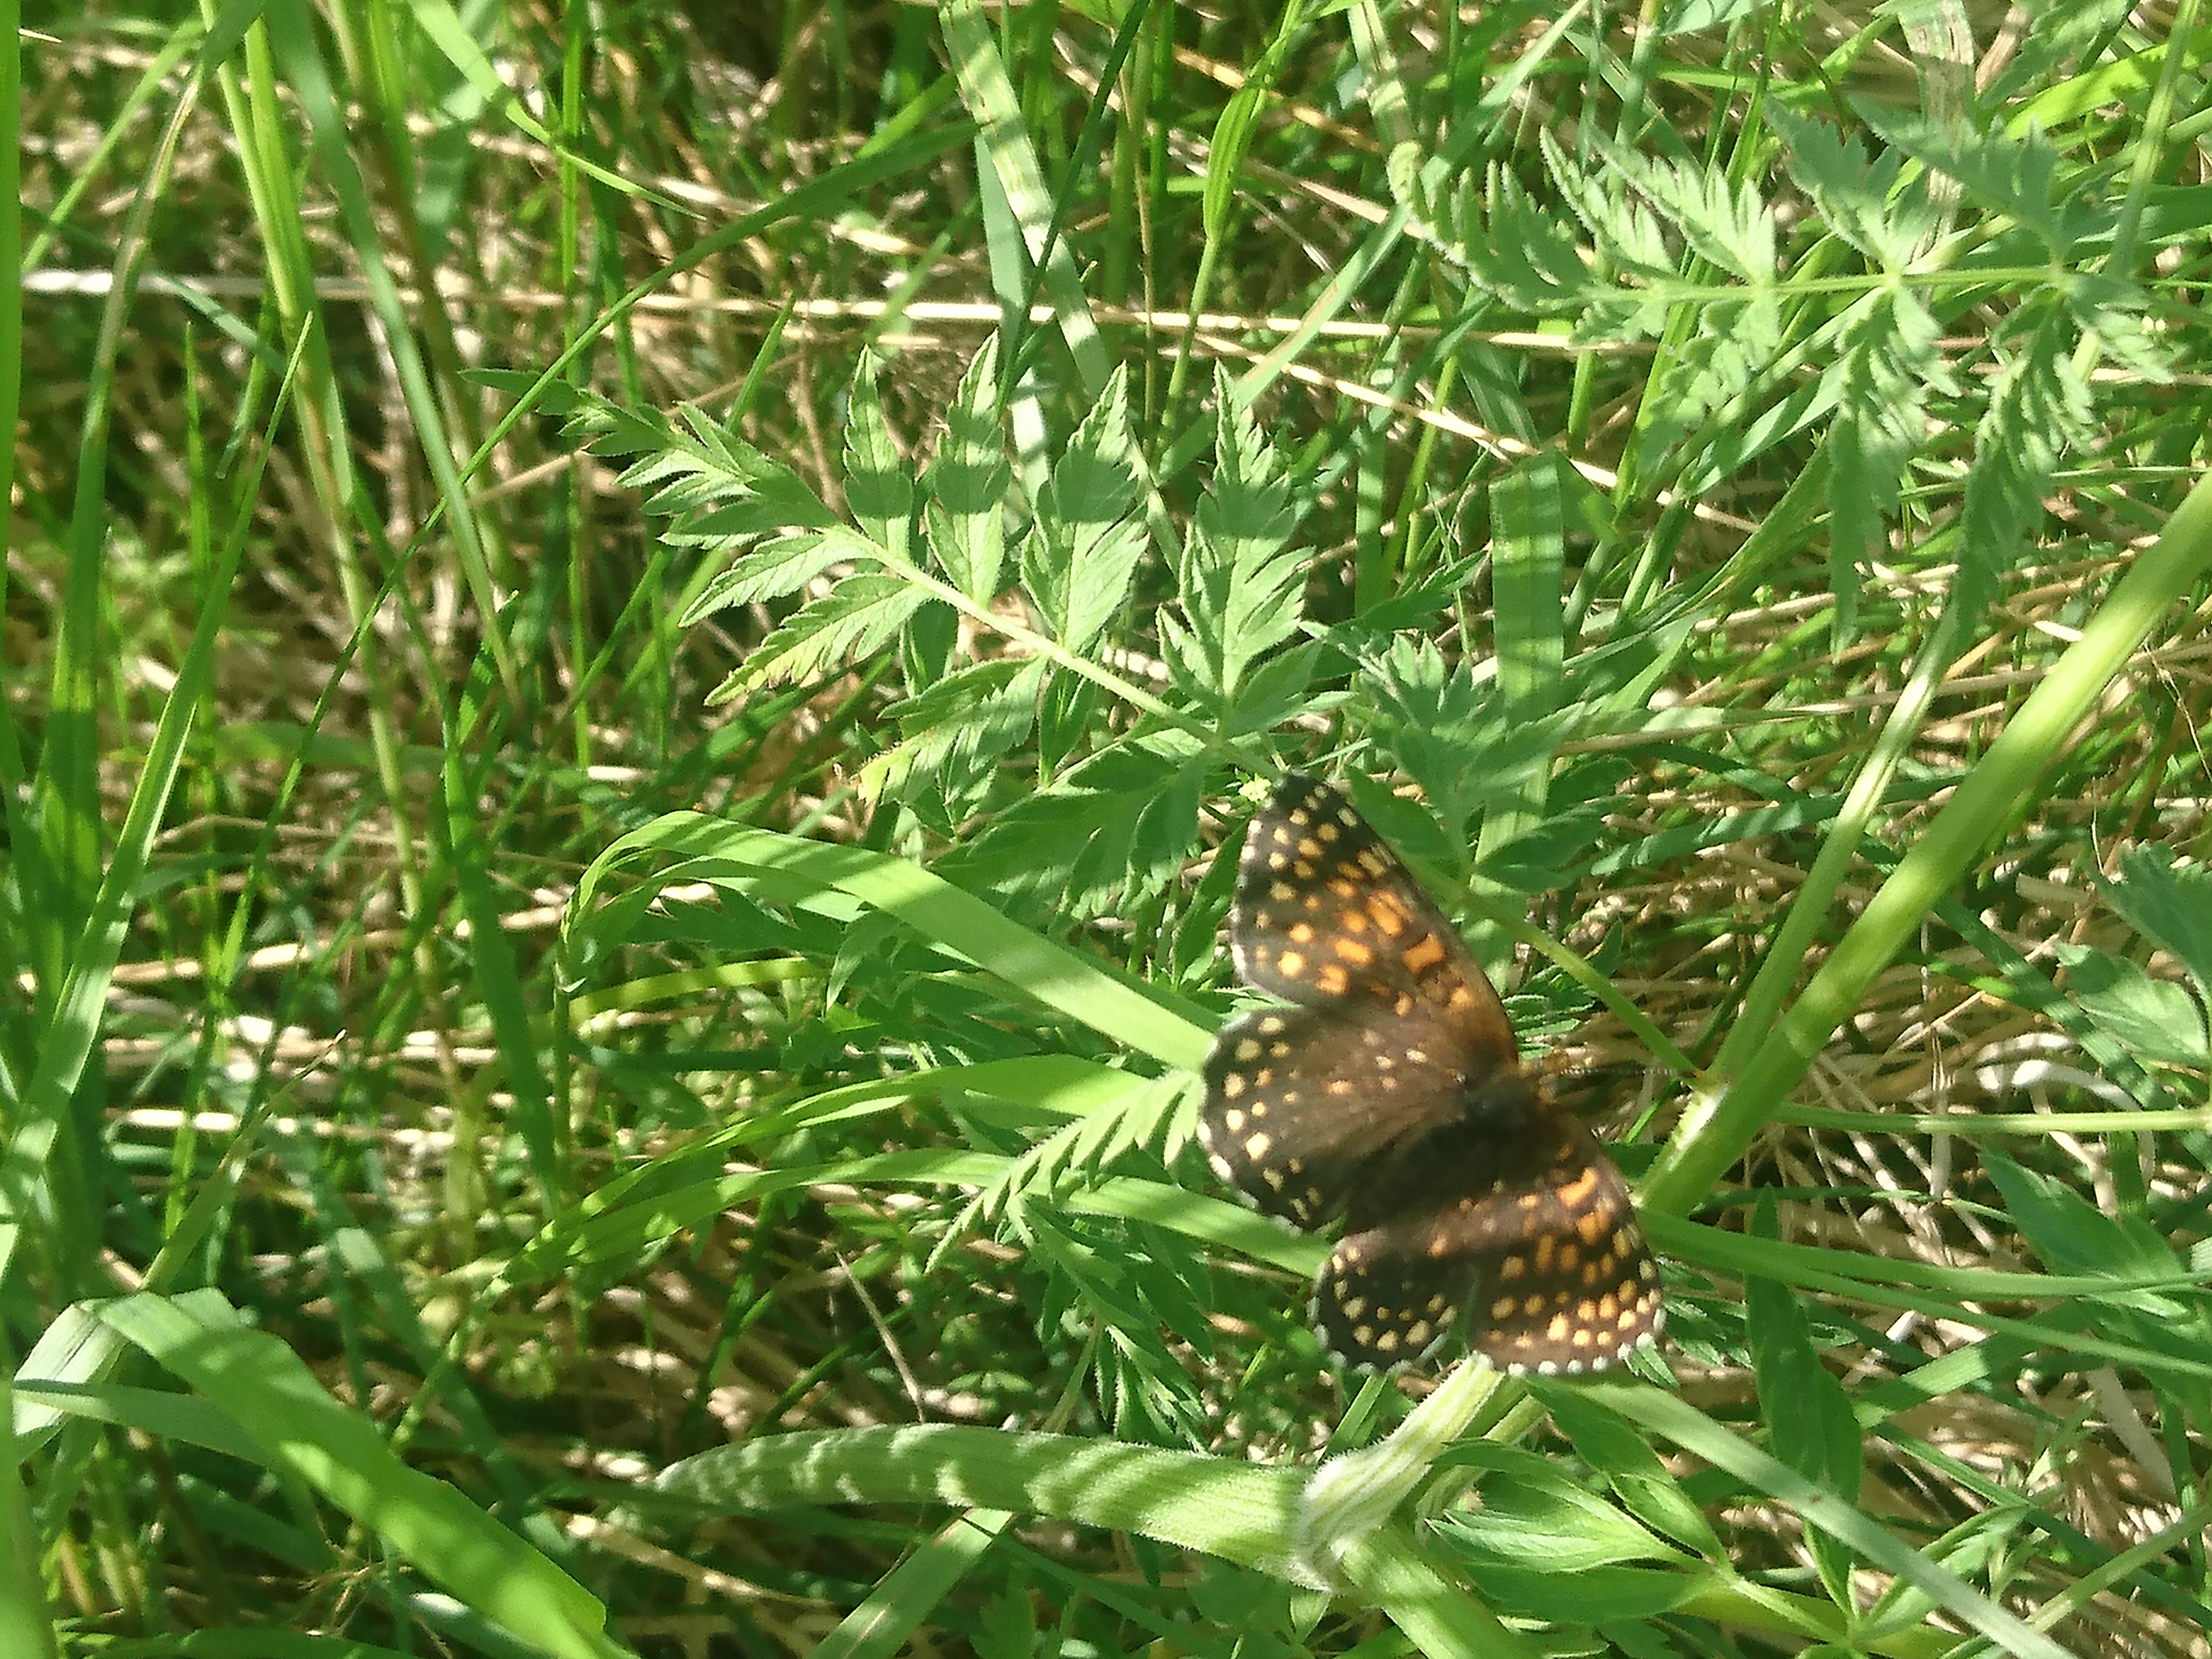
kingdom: Animalia
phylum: Arthropoda
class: Insecta
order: Lepidoptera
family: Nymphalidae
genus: Melitaea
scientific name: Melitaea diamina
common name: False heath fritillary
